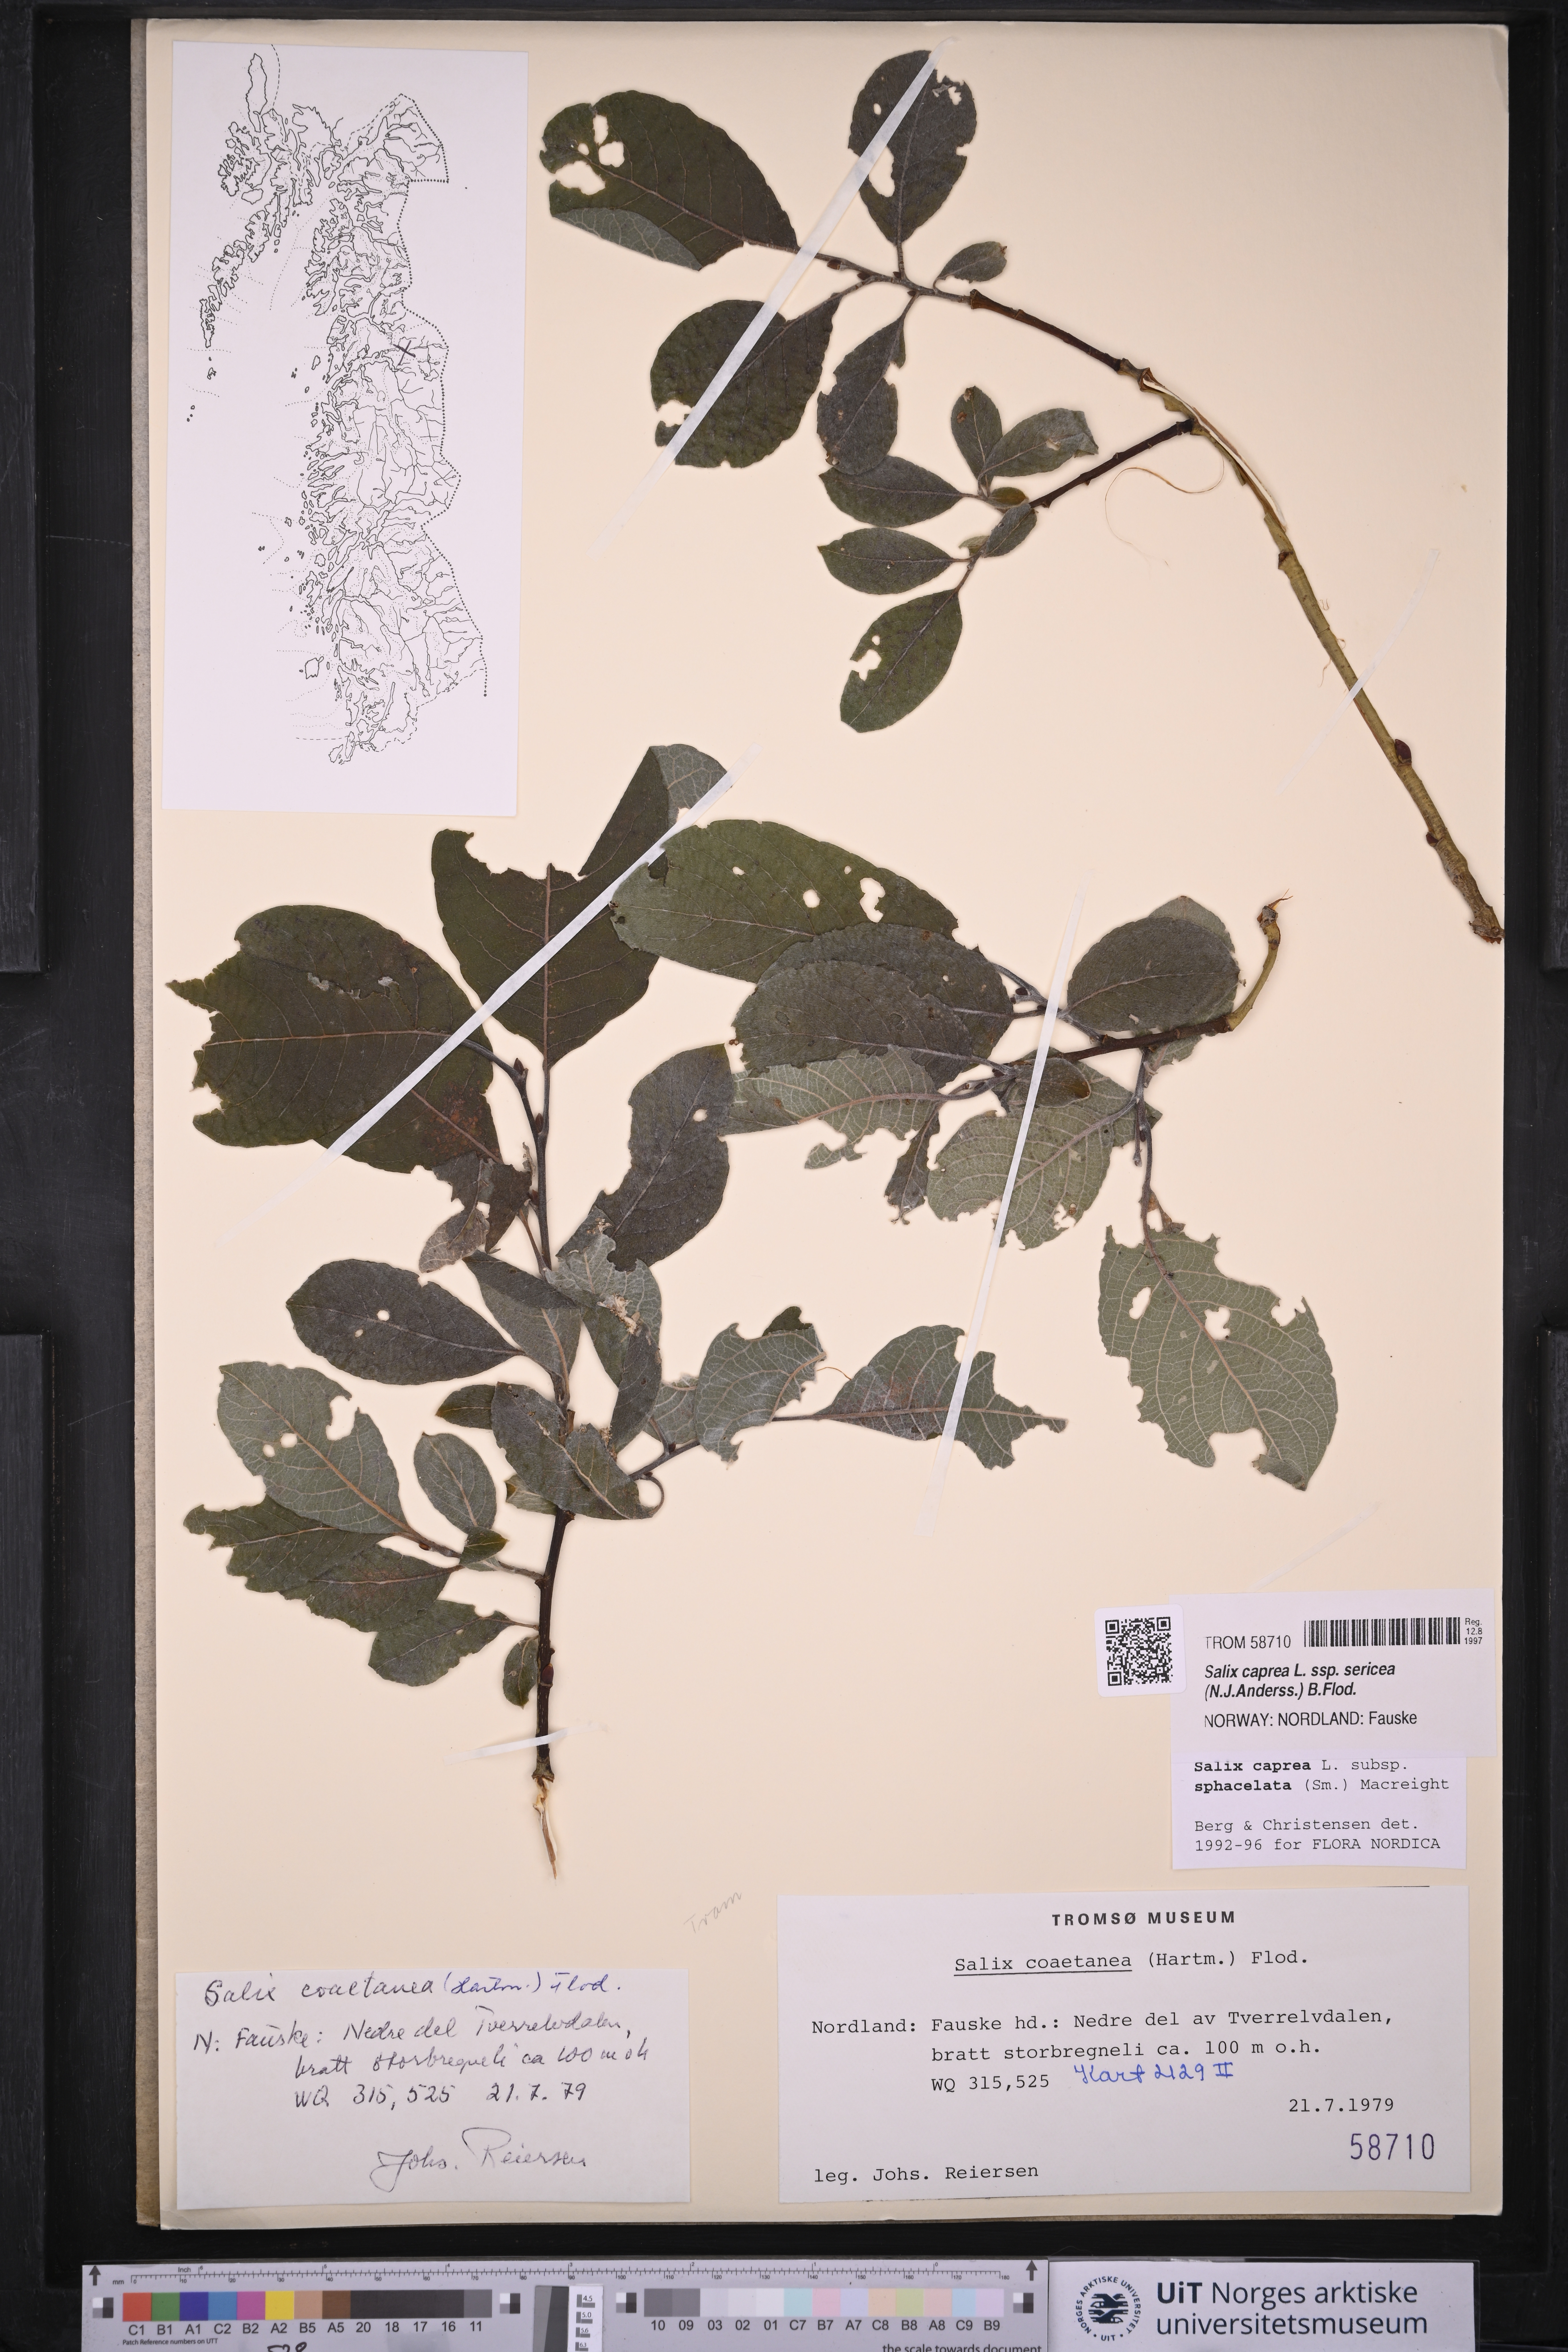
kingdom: Plantae
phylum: Tracheophyta
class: Magnoliopsida
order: Malpighiales
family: Salicaceae
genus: Salix
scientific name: Salix caprea
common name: Goat willow
